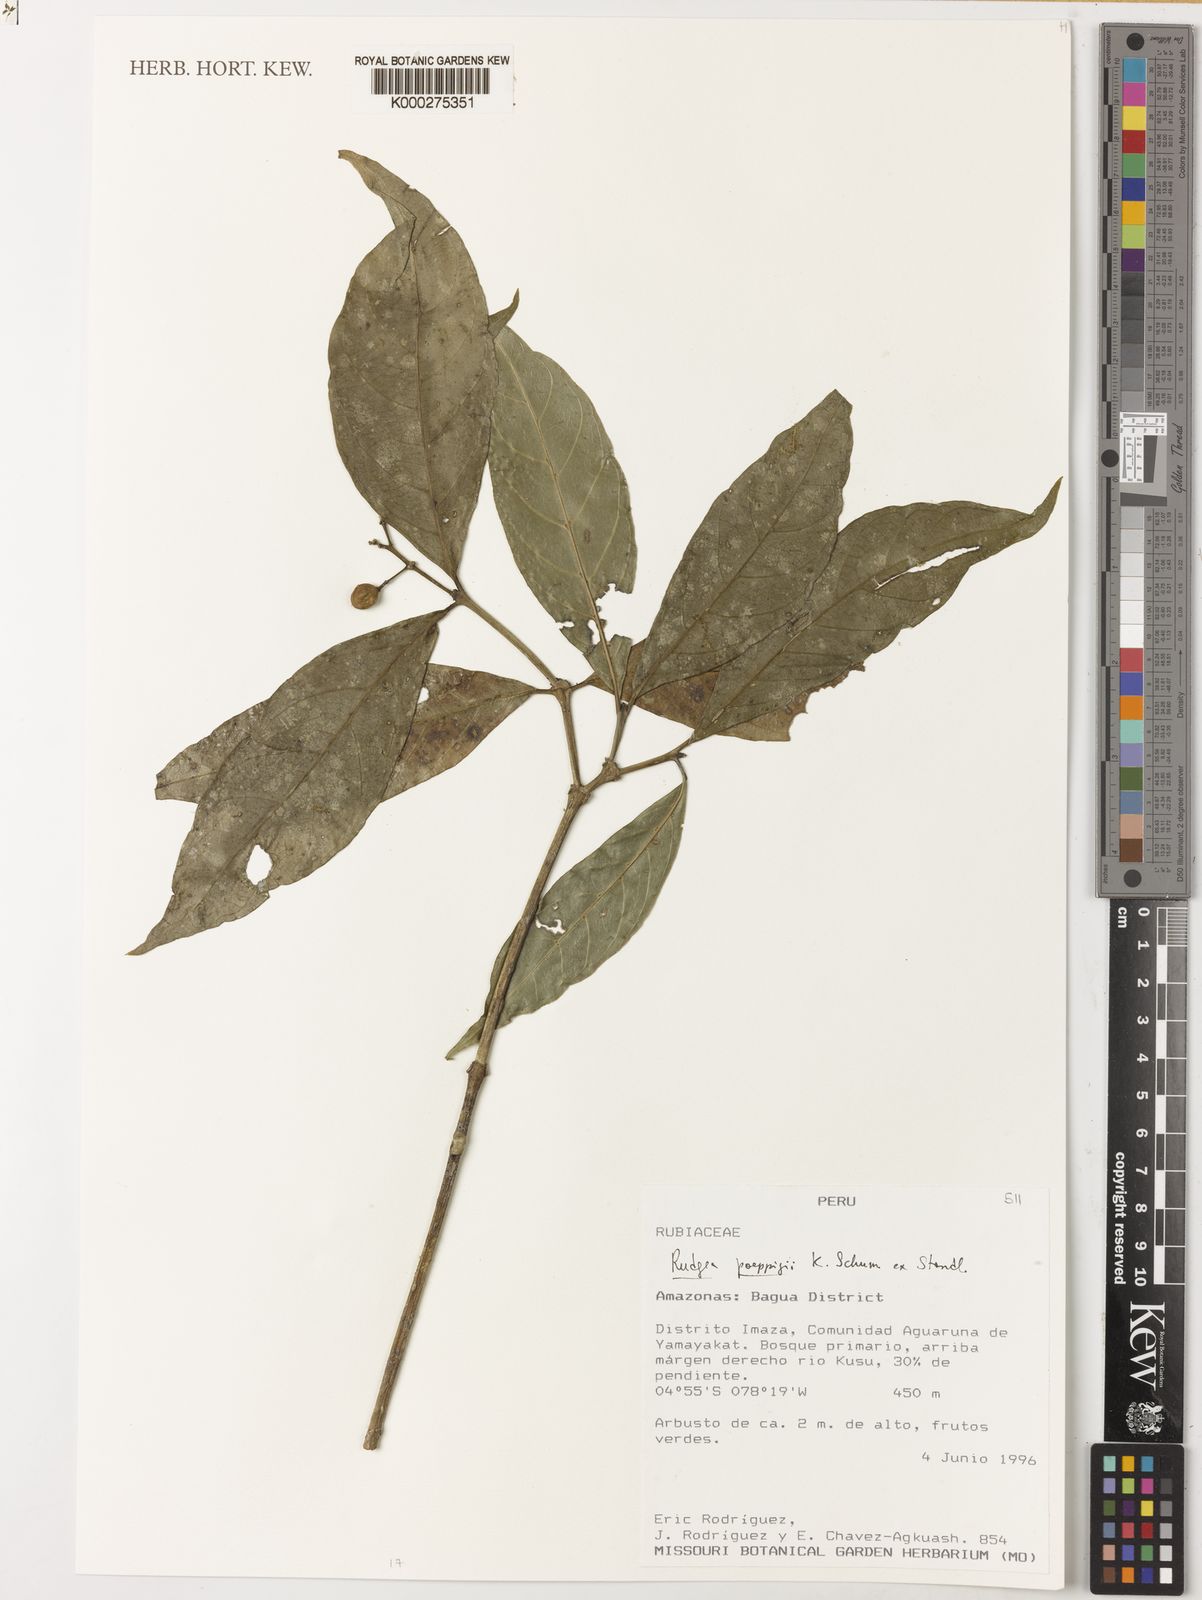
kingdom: Plantae
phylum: Tracheophyta
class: Magnoliopsida
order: Gentianales
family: Rubiaceae
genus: Rudgea
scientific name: Rudgea poeppigii
